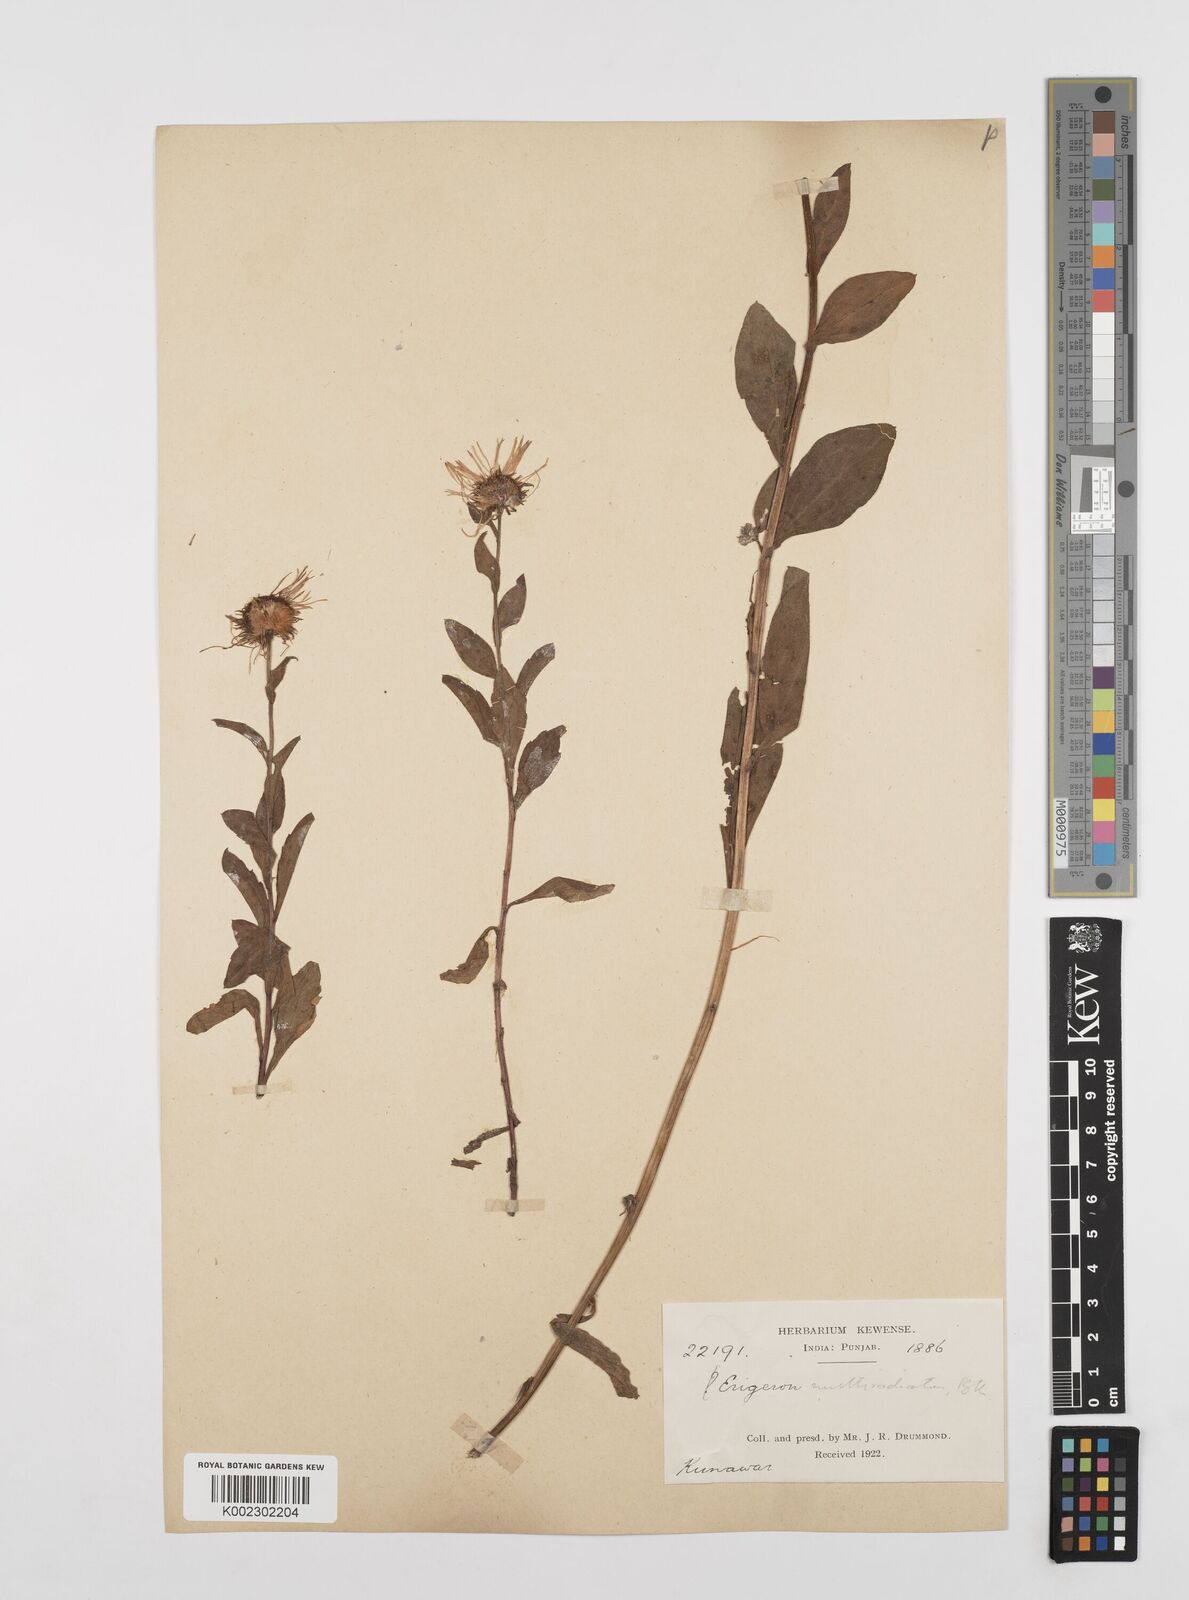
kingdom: Plantae
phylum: Tracheophyta
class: Magnoliopsida
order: Asterales
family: Asteraceae
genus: Erigeron
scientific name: Erigeron multiradiatus
